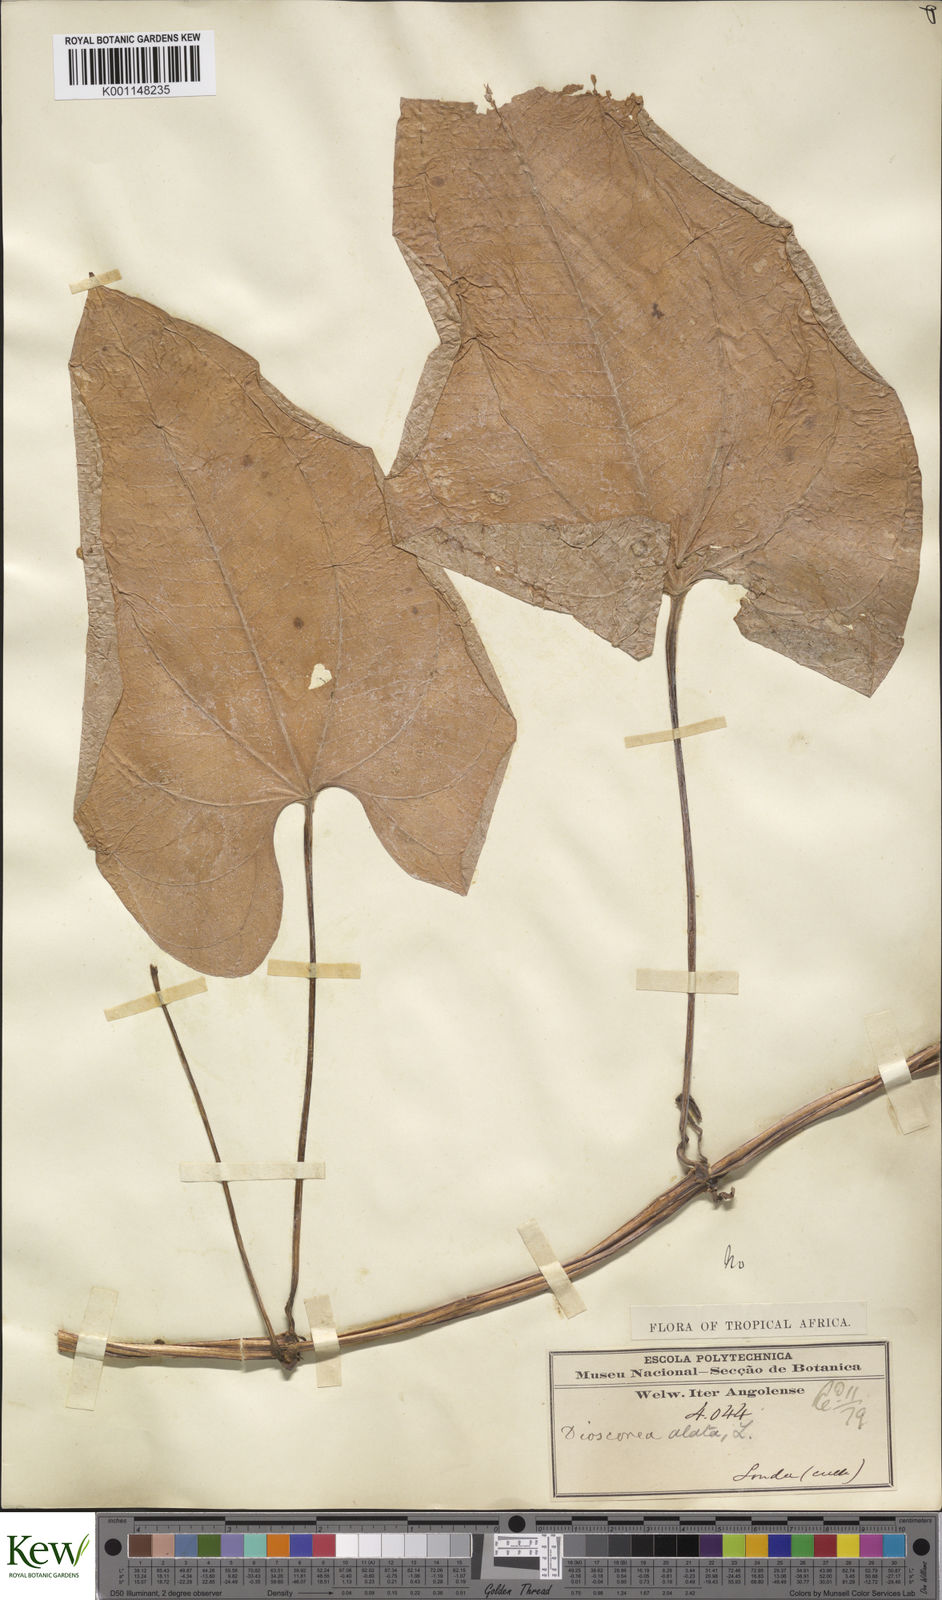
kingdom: Plantae
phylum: Tracheophyta
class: Liliopsida
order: Dioscoreales
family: Dioscoreaceae
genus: Dioscorea
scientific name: Dioscorea alata
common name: Water yam
